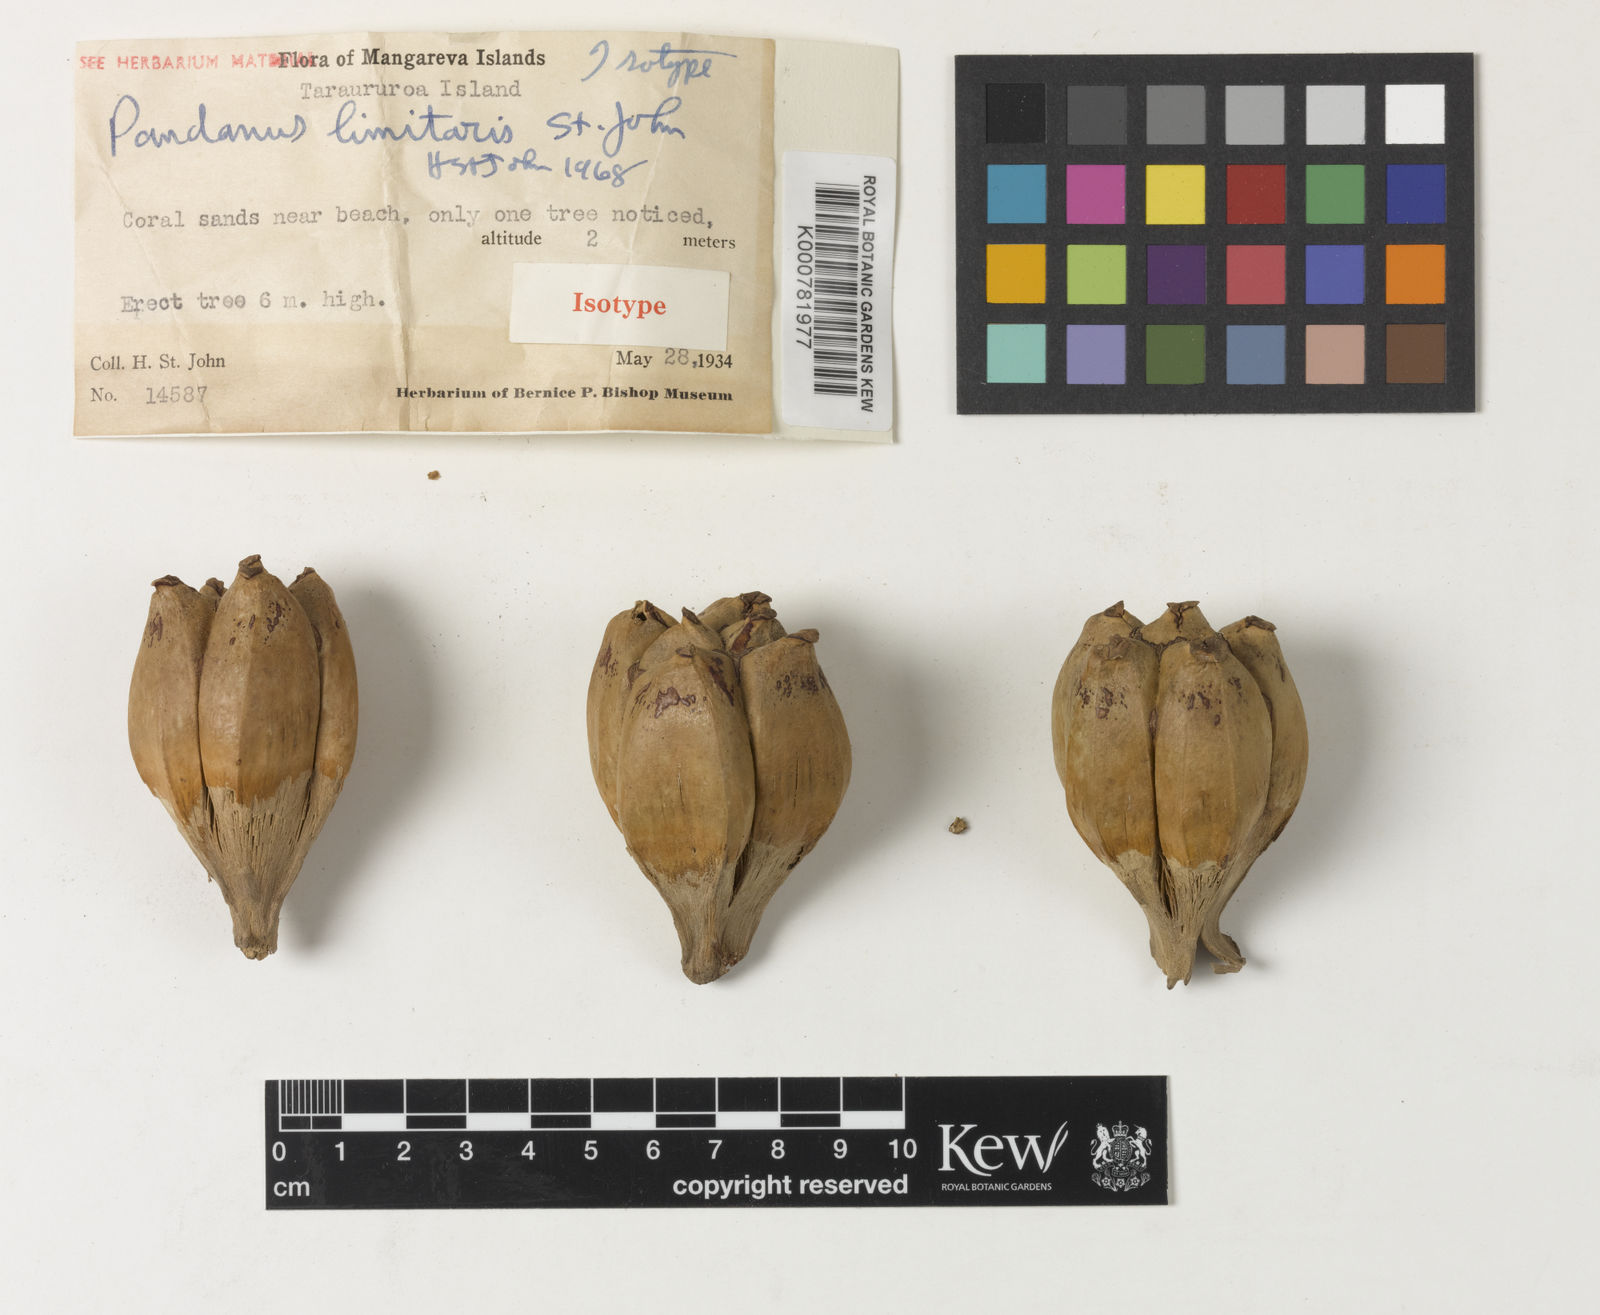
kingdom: Plantae
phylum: Tracheophyta
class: Liliopsida
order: Pandanales
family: Pandanaceae
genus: Pandanus
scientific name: Pandanus tectorius
